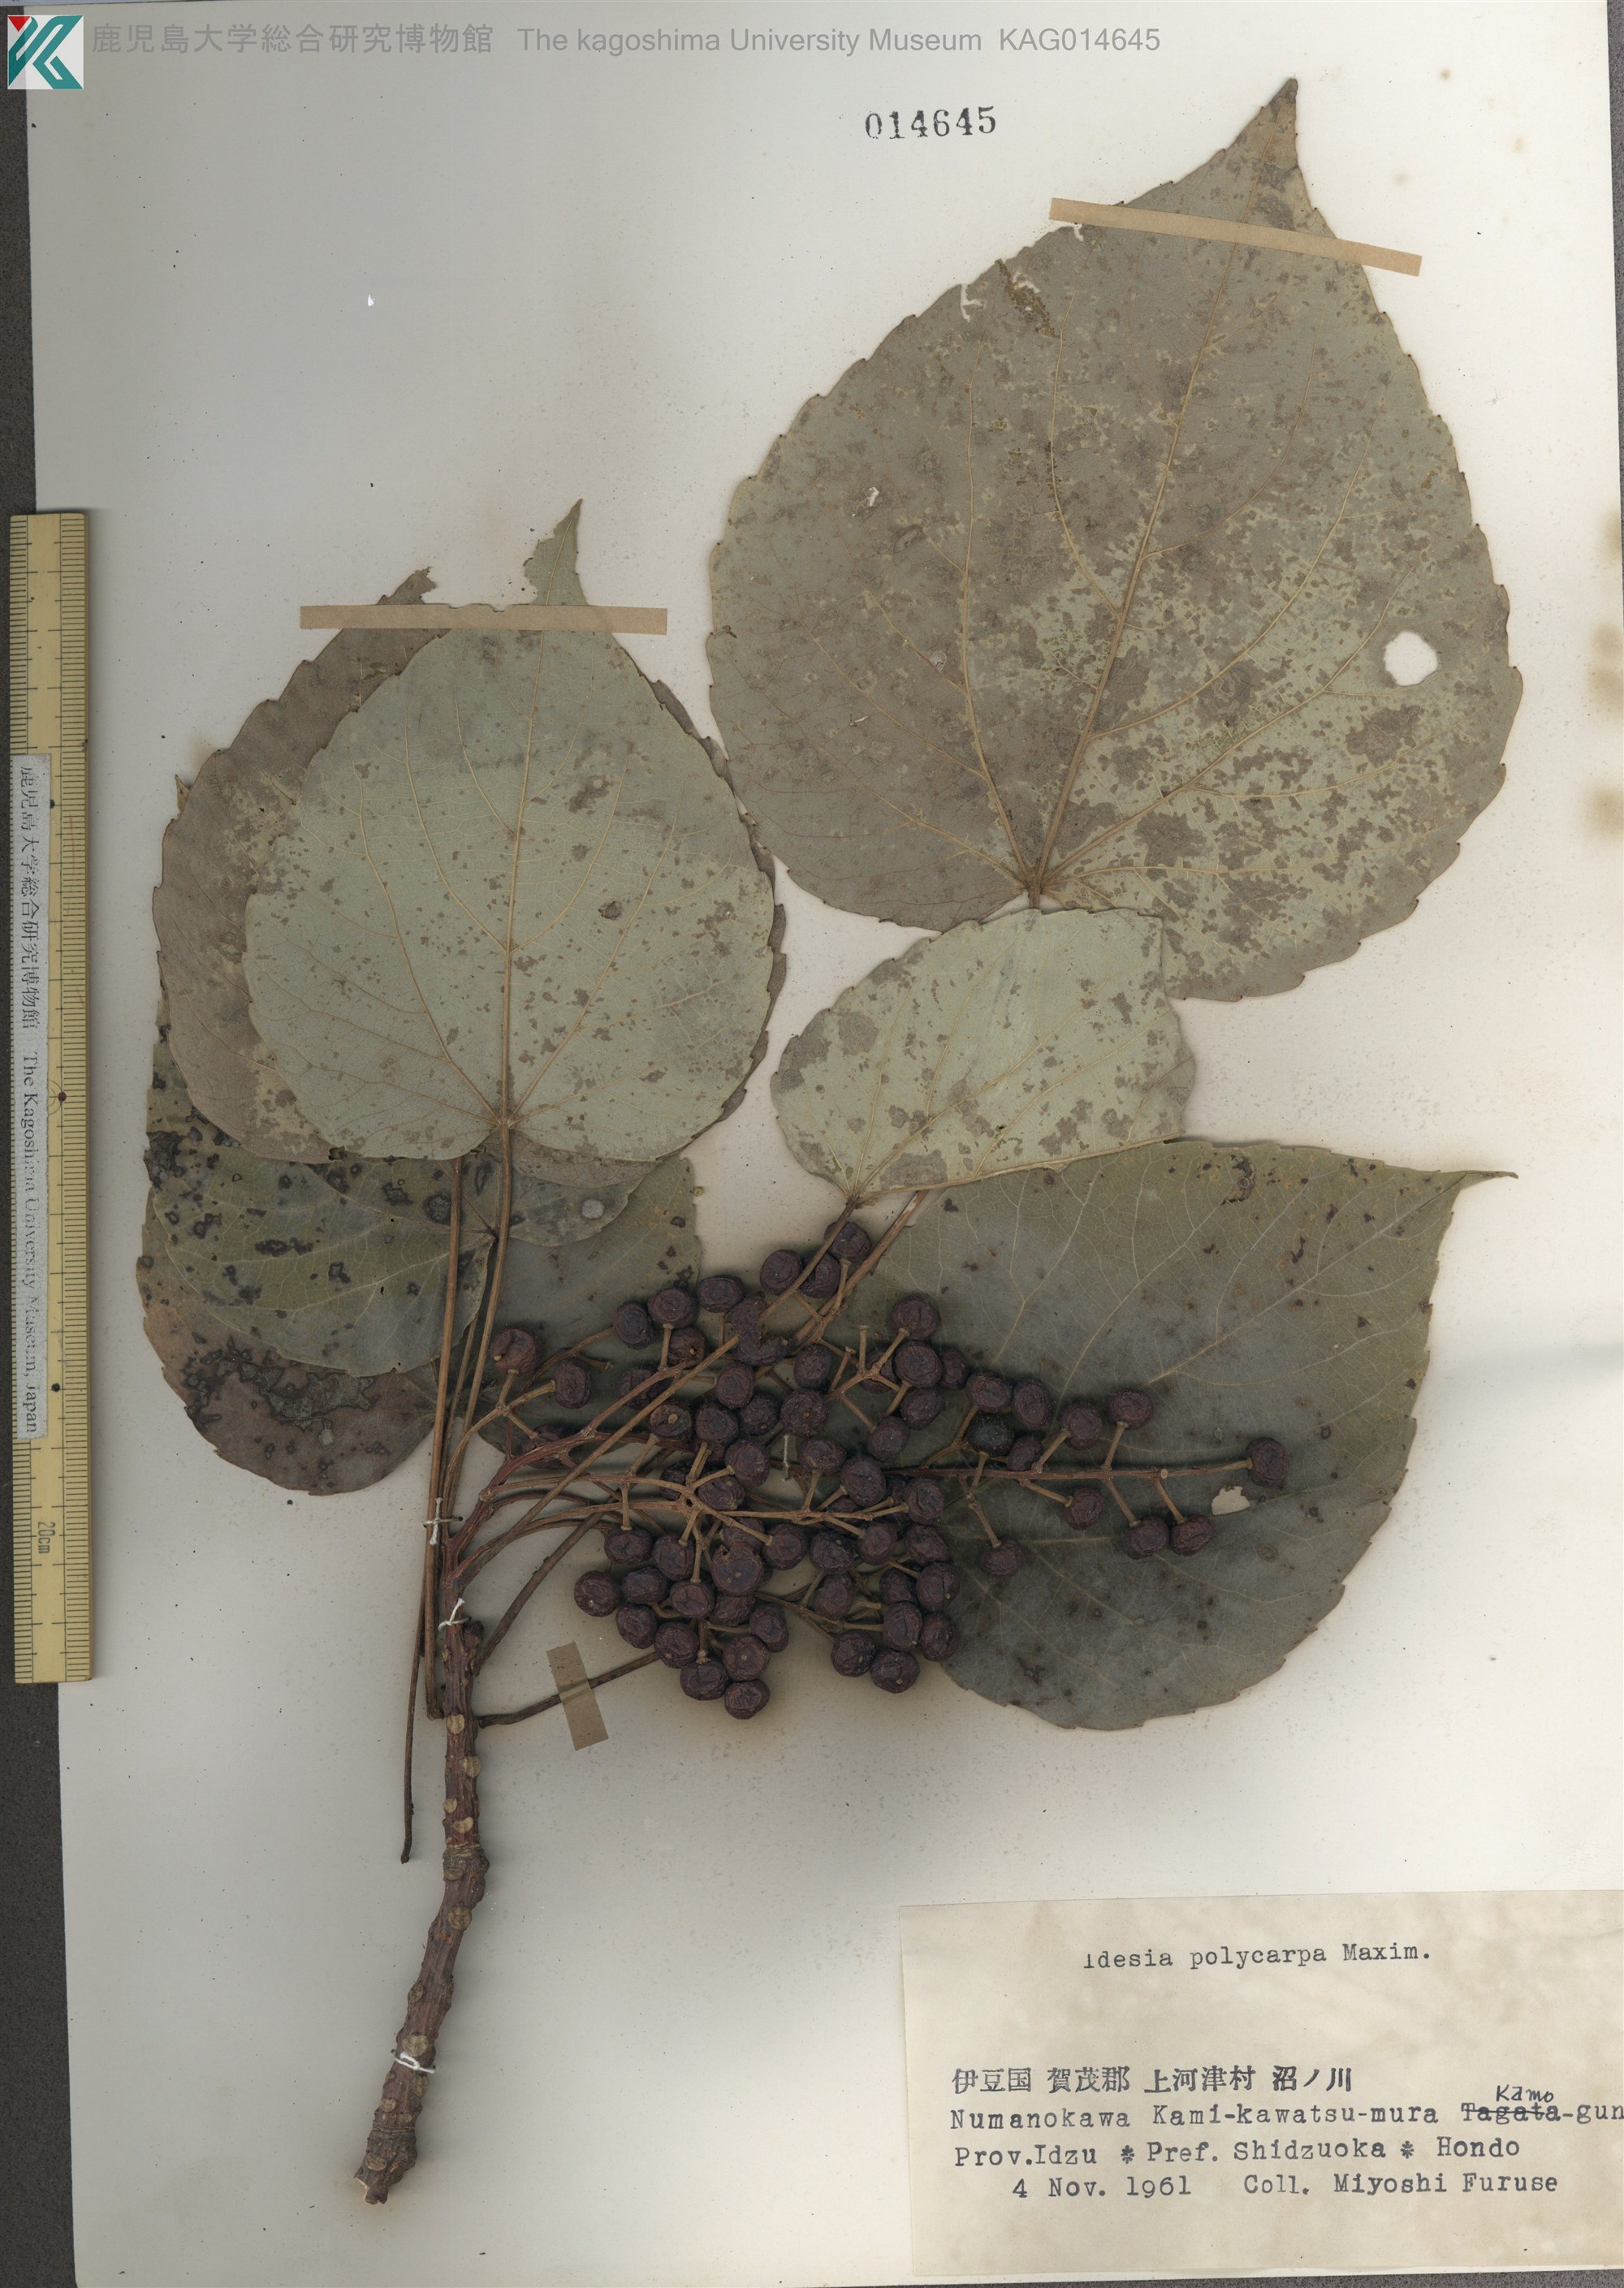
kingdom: Plantae
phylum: Tracheophyta
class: Magnoliopsida
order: Malpighiales
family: Salicaceae
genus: Idesia
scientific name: Idesia polycarpa
